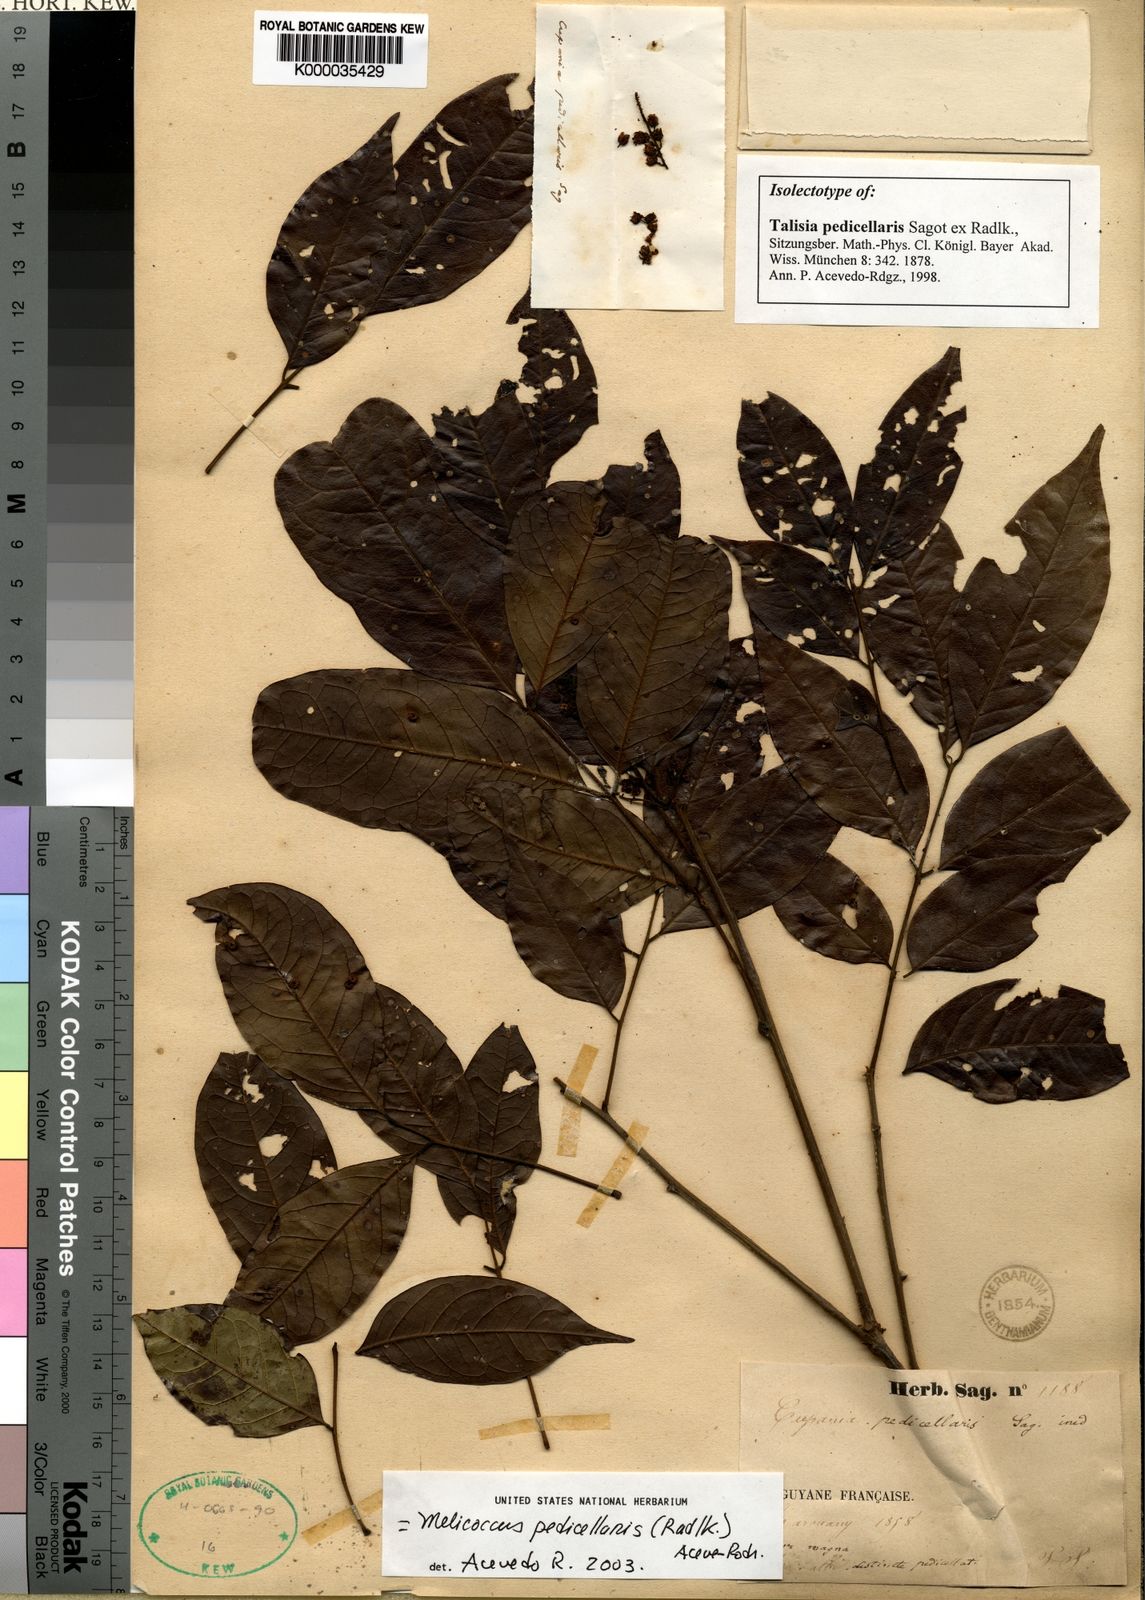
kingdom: Plantae
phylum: Tracheophyta
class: Magnoliopsida
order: Sapindales
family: Sapindaceae
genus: Melicoccus
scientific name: Melicoccus
